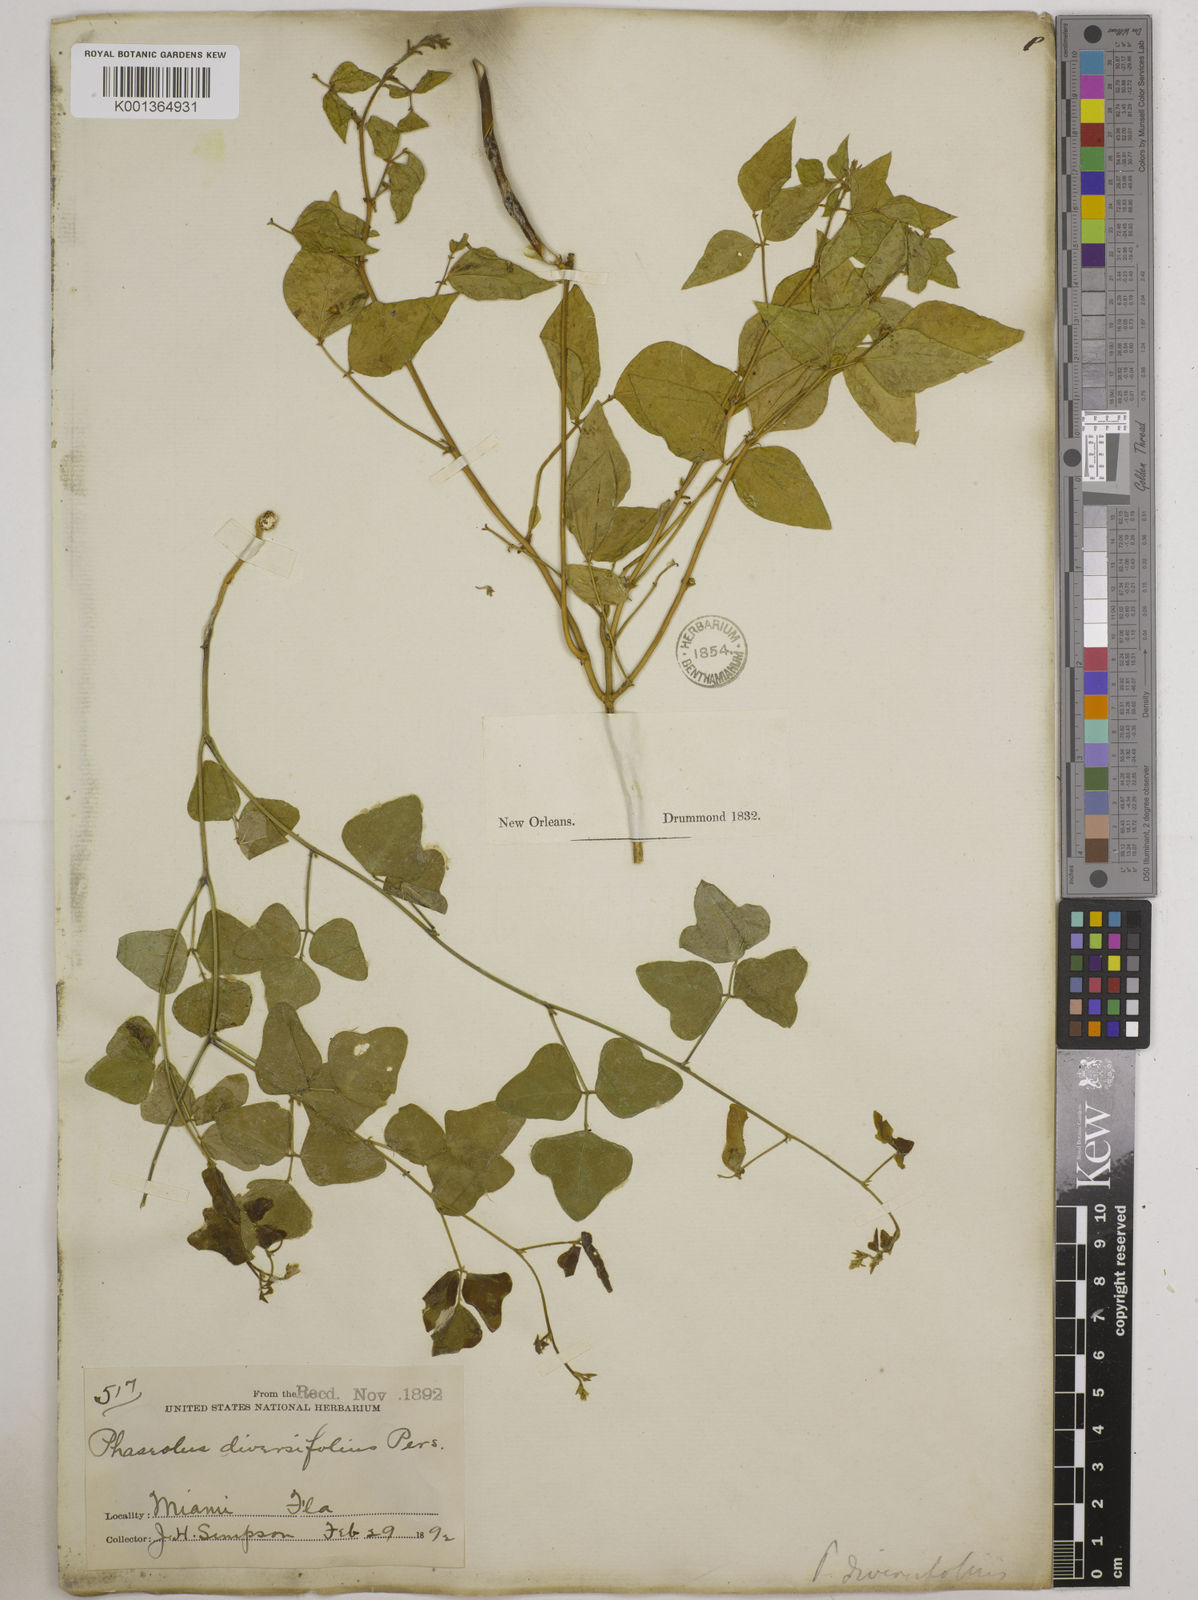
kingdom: Plantae
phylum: Tracheophyta
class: Magnoliopsida
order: Fabales
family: Fabaceae
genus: Strophostyles
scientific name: Strophostyles
